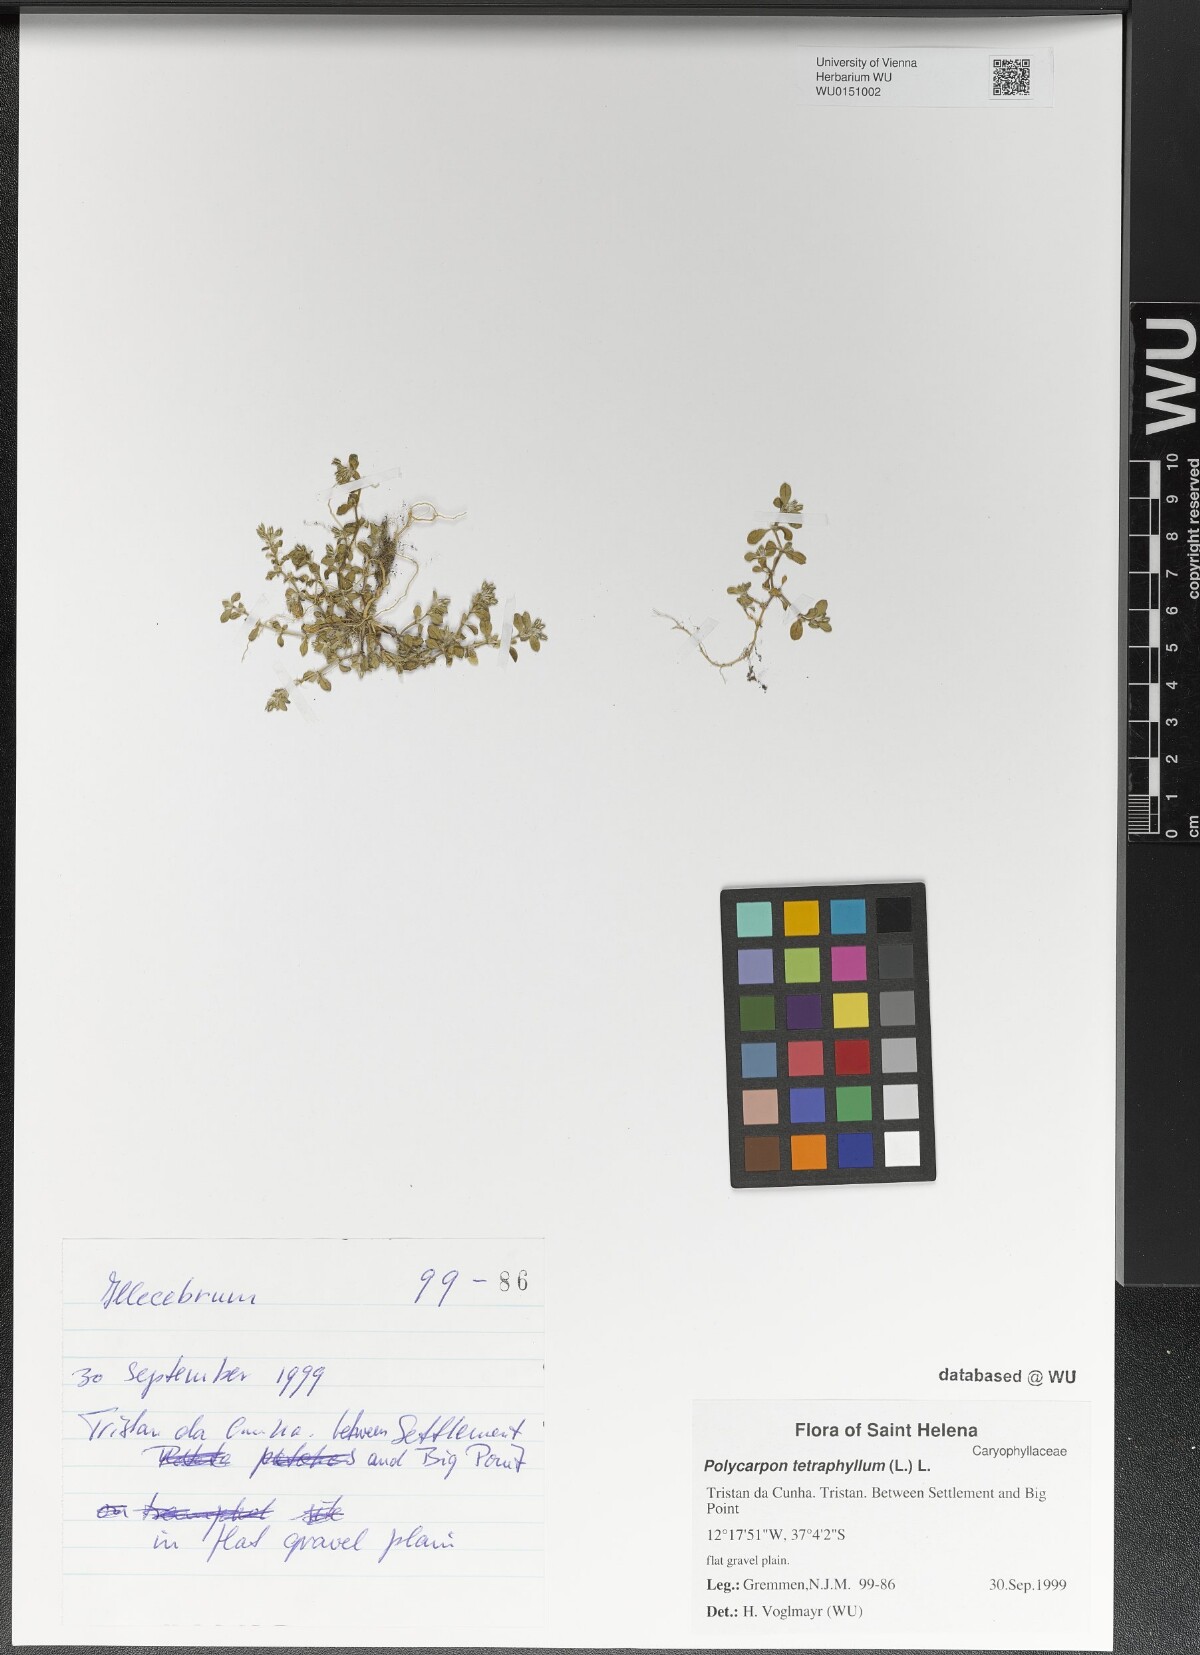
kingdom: Plantae
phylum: Tracheophyta
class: Magnoliopsida
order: Caryophyllales
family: Caryophyllaceae
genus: Polycarpon
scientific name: Polycarpon tetraphyllum
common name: Four-leaved all-seed
